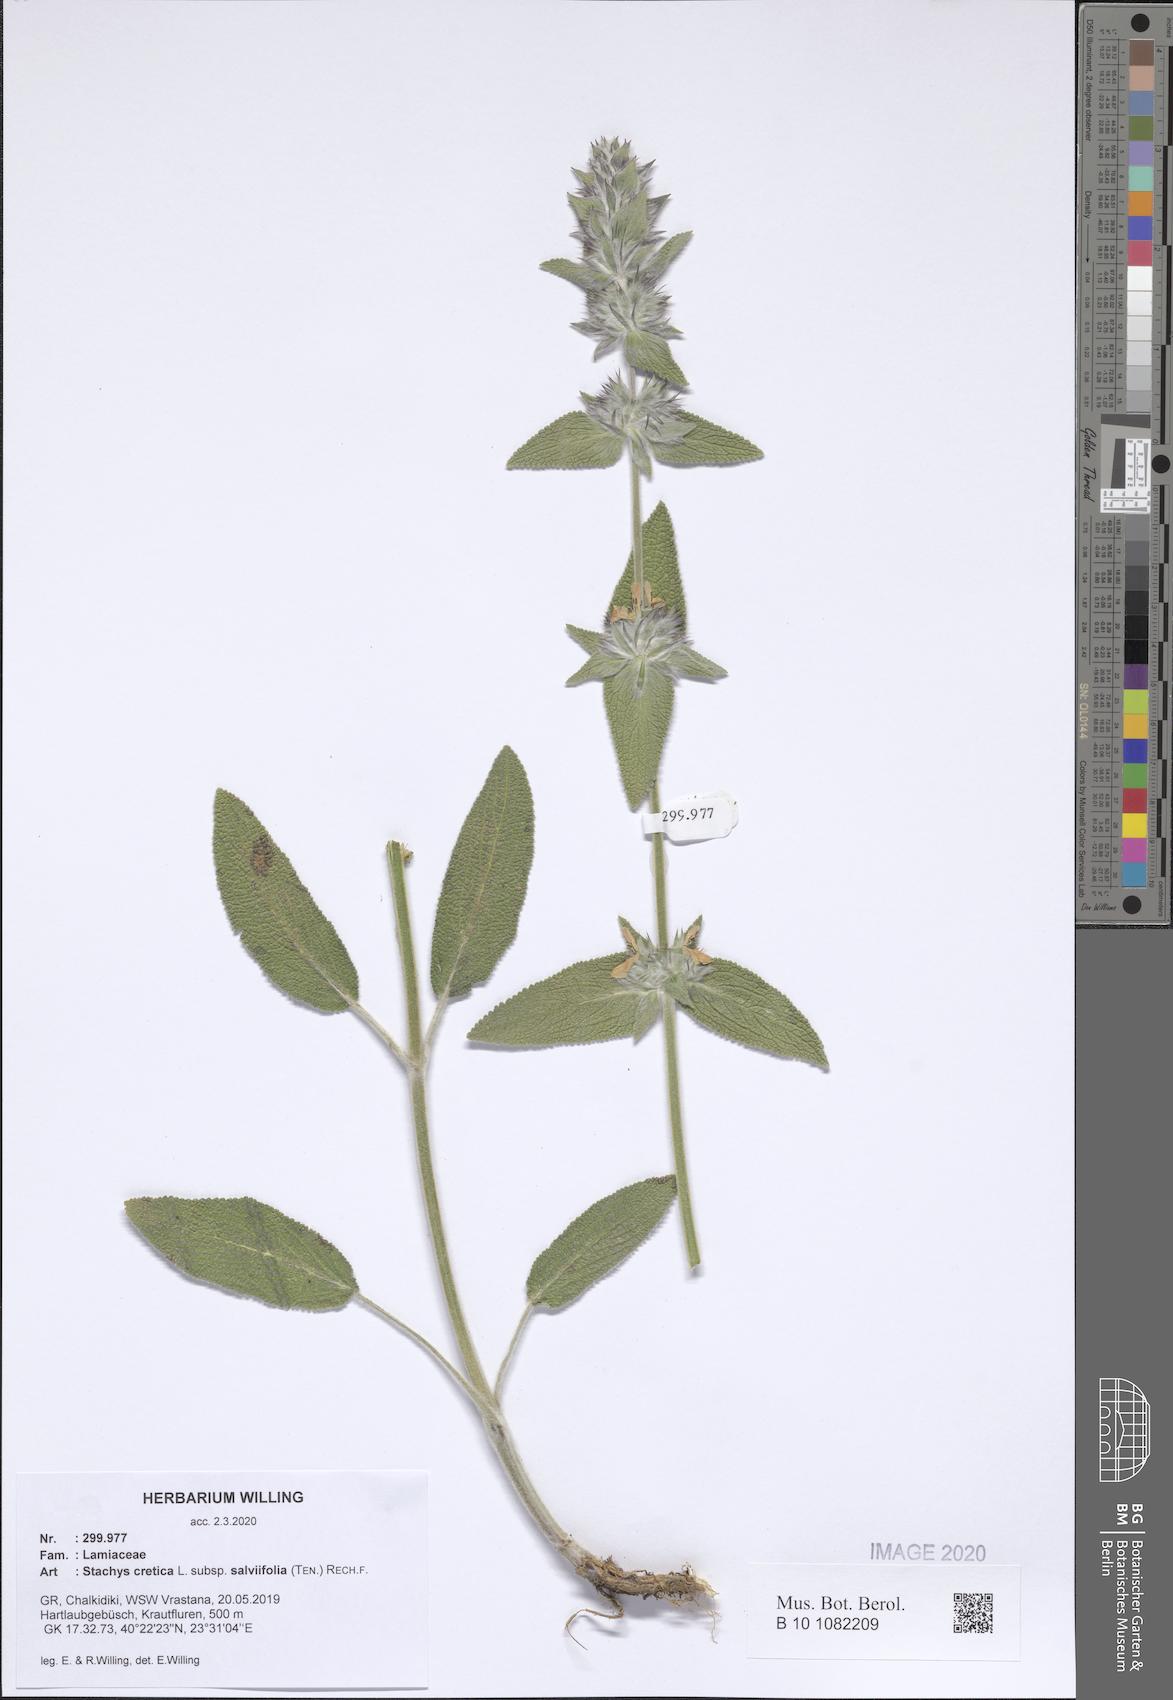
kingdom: Plantae
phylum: Tracheophyta
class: Magnoliopsida
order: Lamiales
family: Lamiaceae
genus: Stachys
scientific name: Stachys cretica
